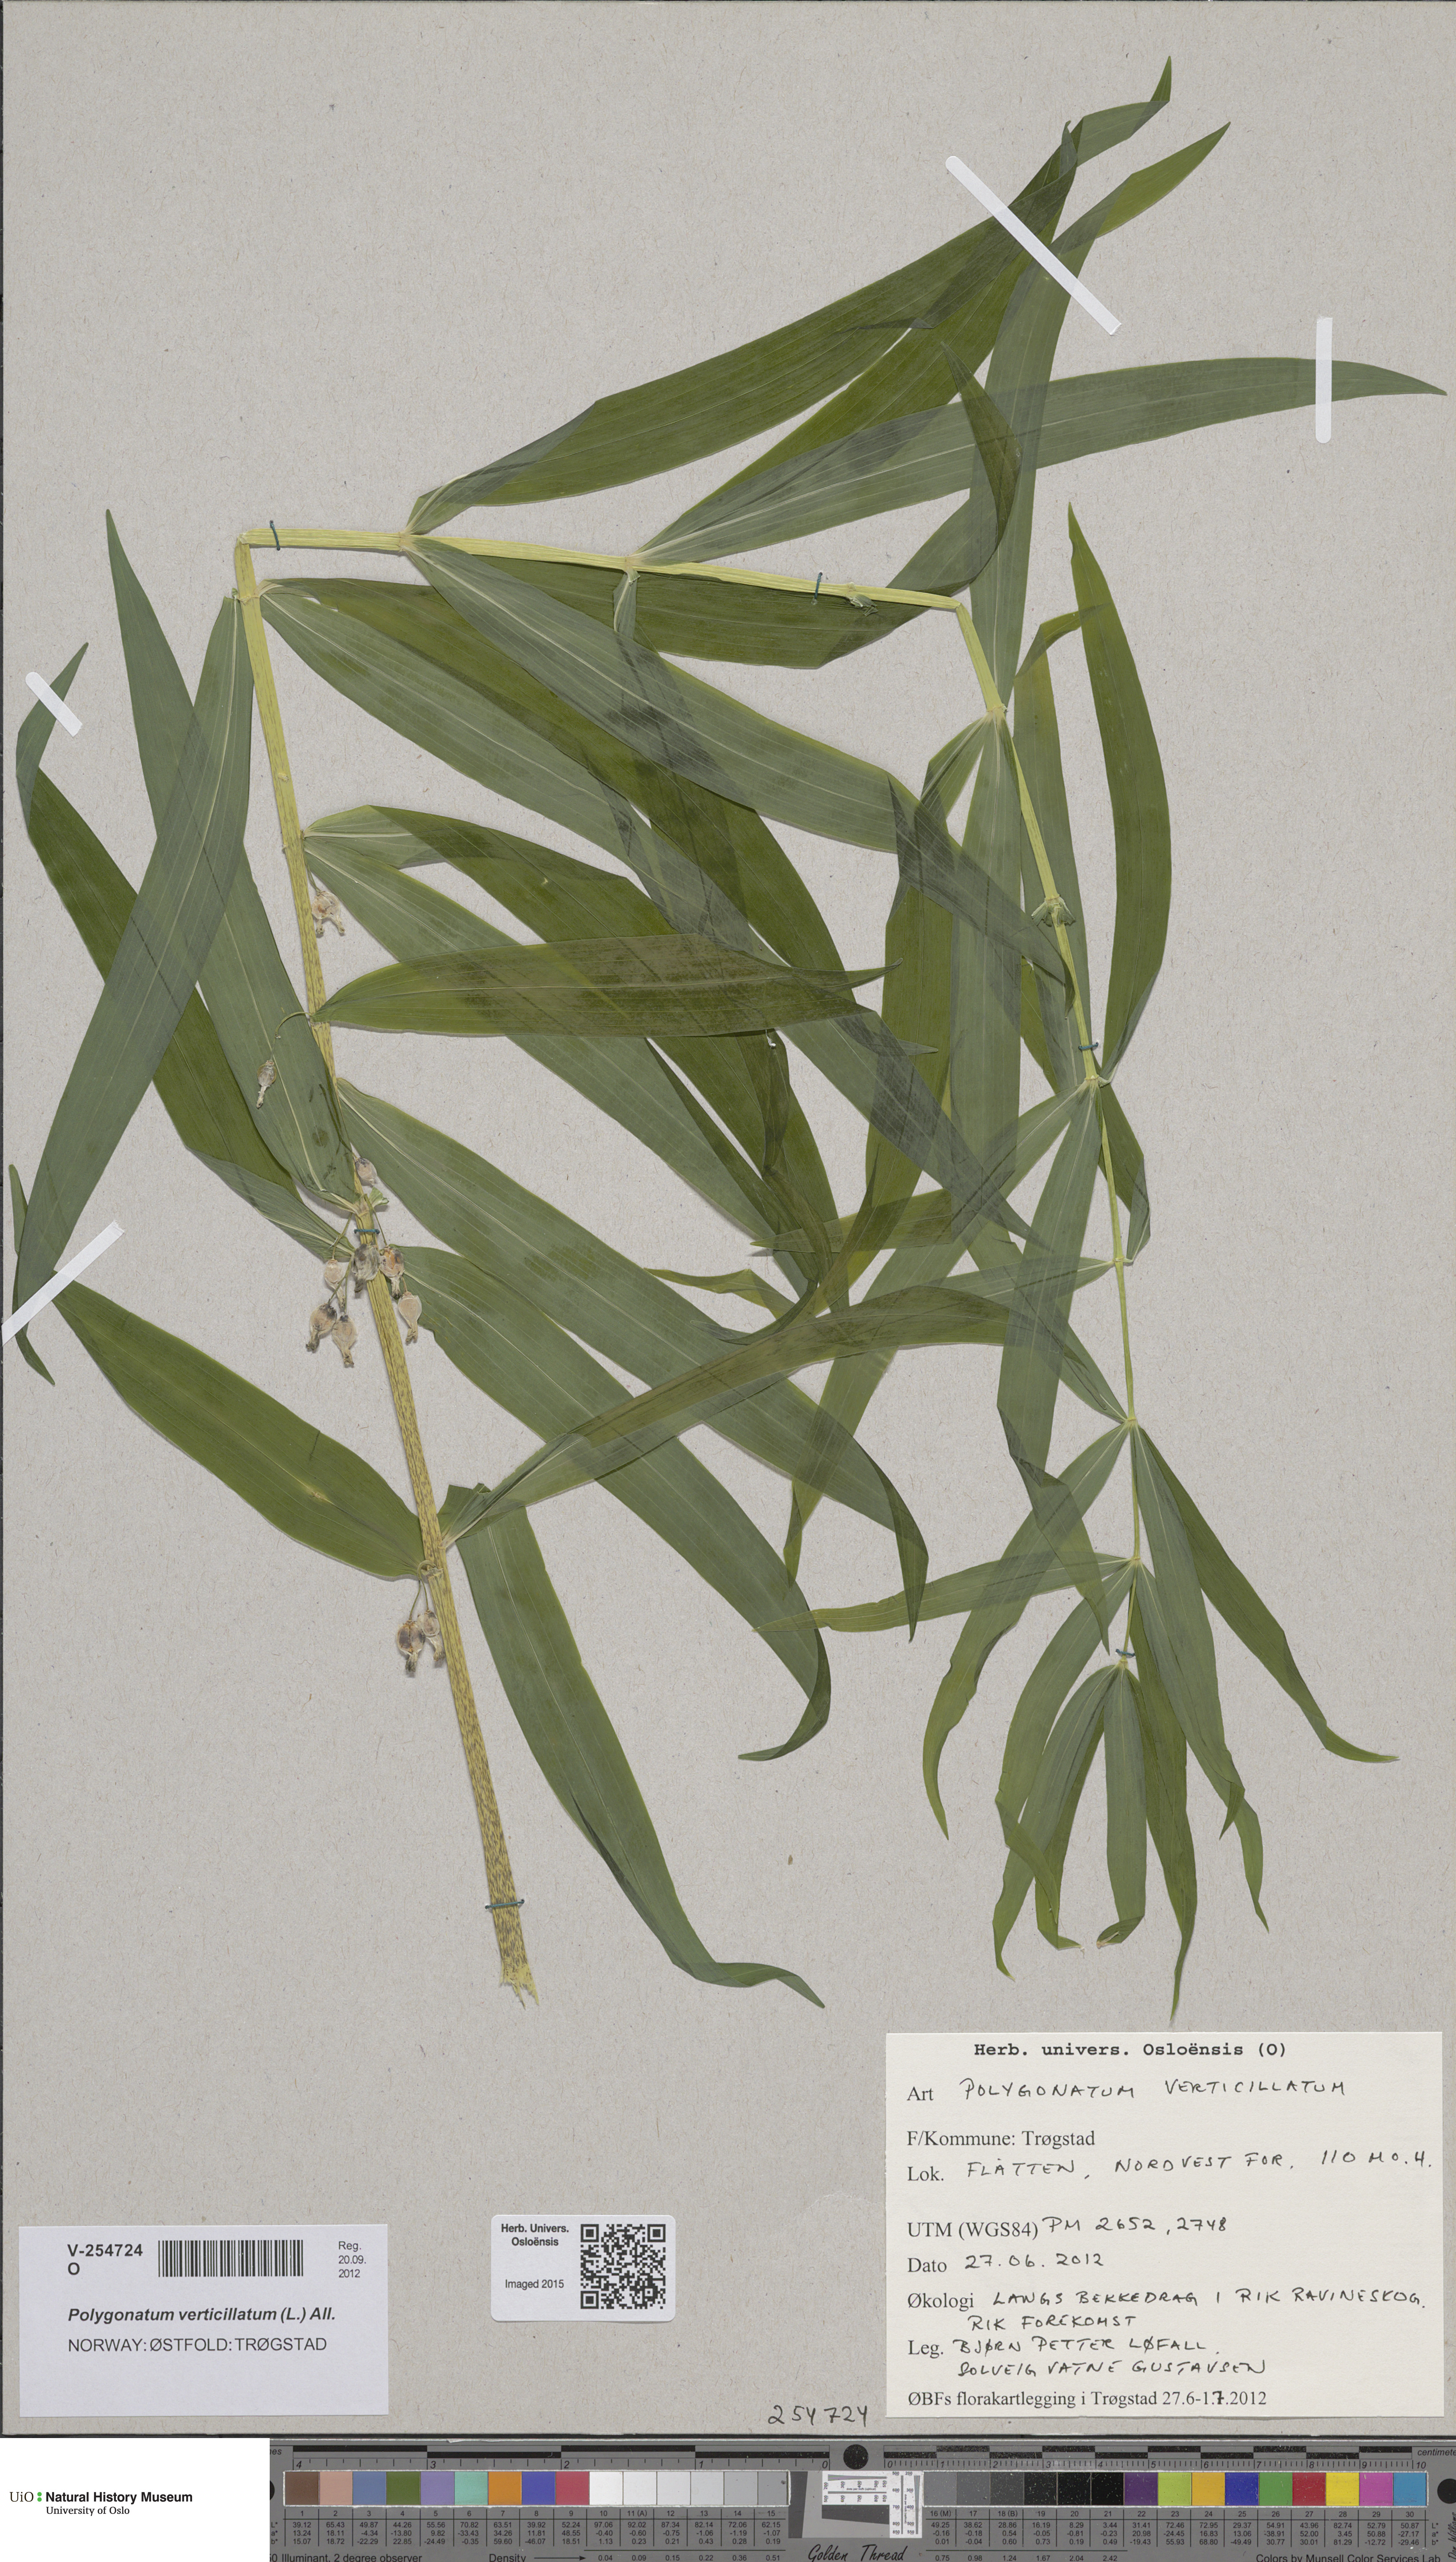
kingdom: Plantae
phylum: Tracheophyta
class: Liliopsida
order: Asparagales
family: Asparagaceae
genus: Polygonatum
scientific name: Polygonatum verticillatum
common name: Whorled solomon's-seal
